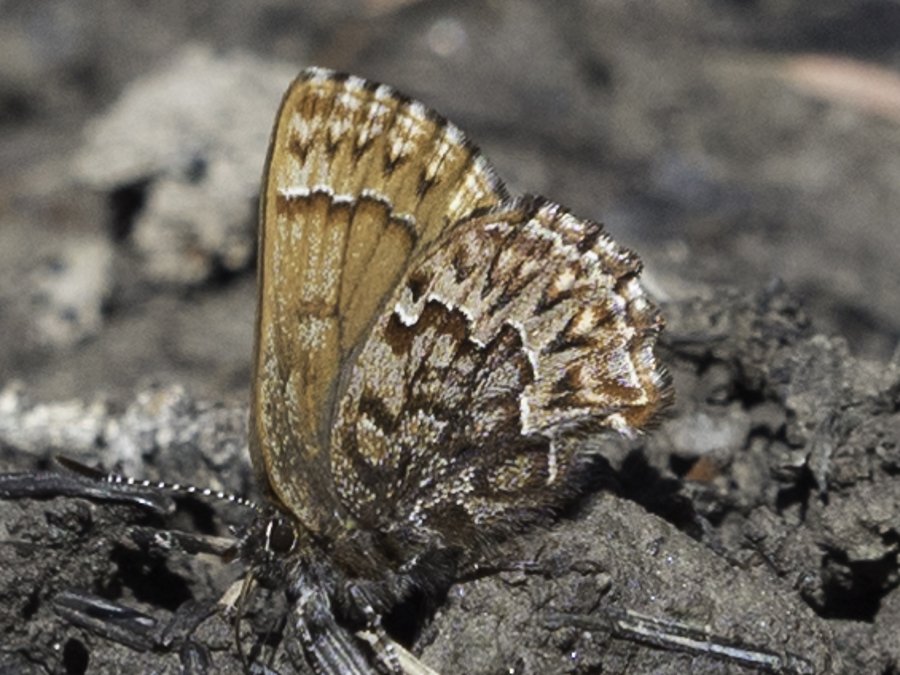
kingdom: Animalia
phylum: Arthropoda
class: Insecta
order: Lepidoptera
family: Lycaenidae
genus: Incisalia
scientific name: Incisalia eryphon
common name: Western Pine Elfin
